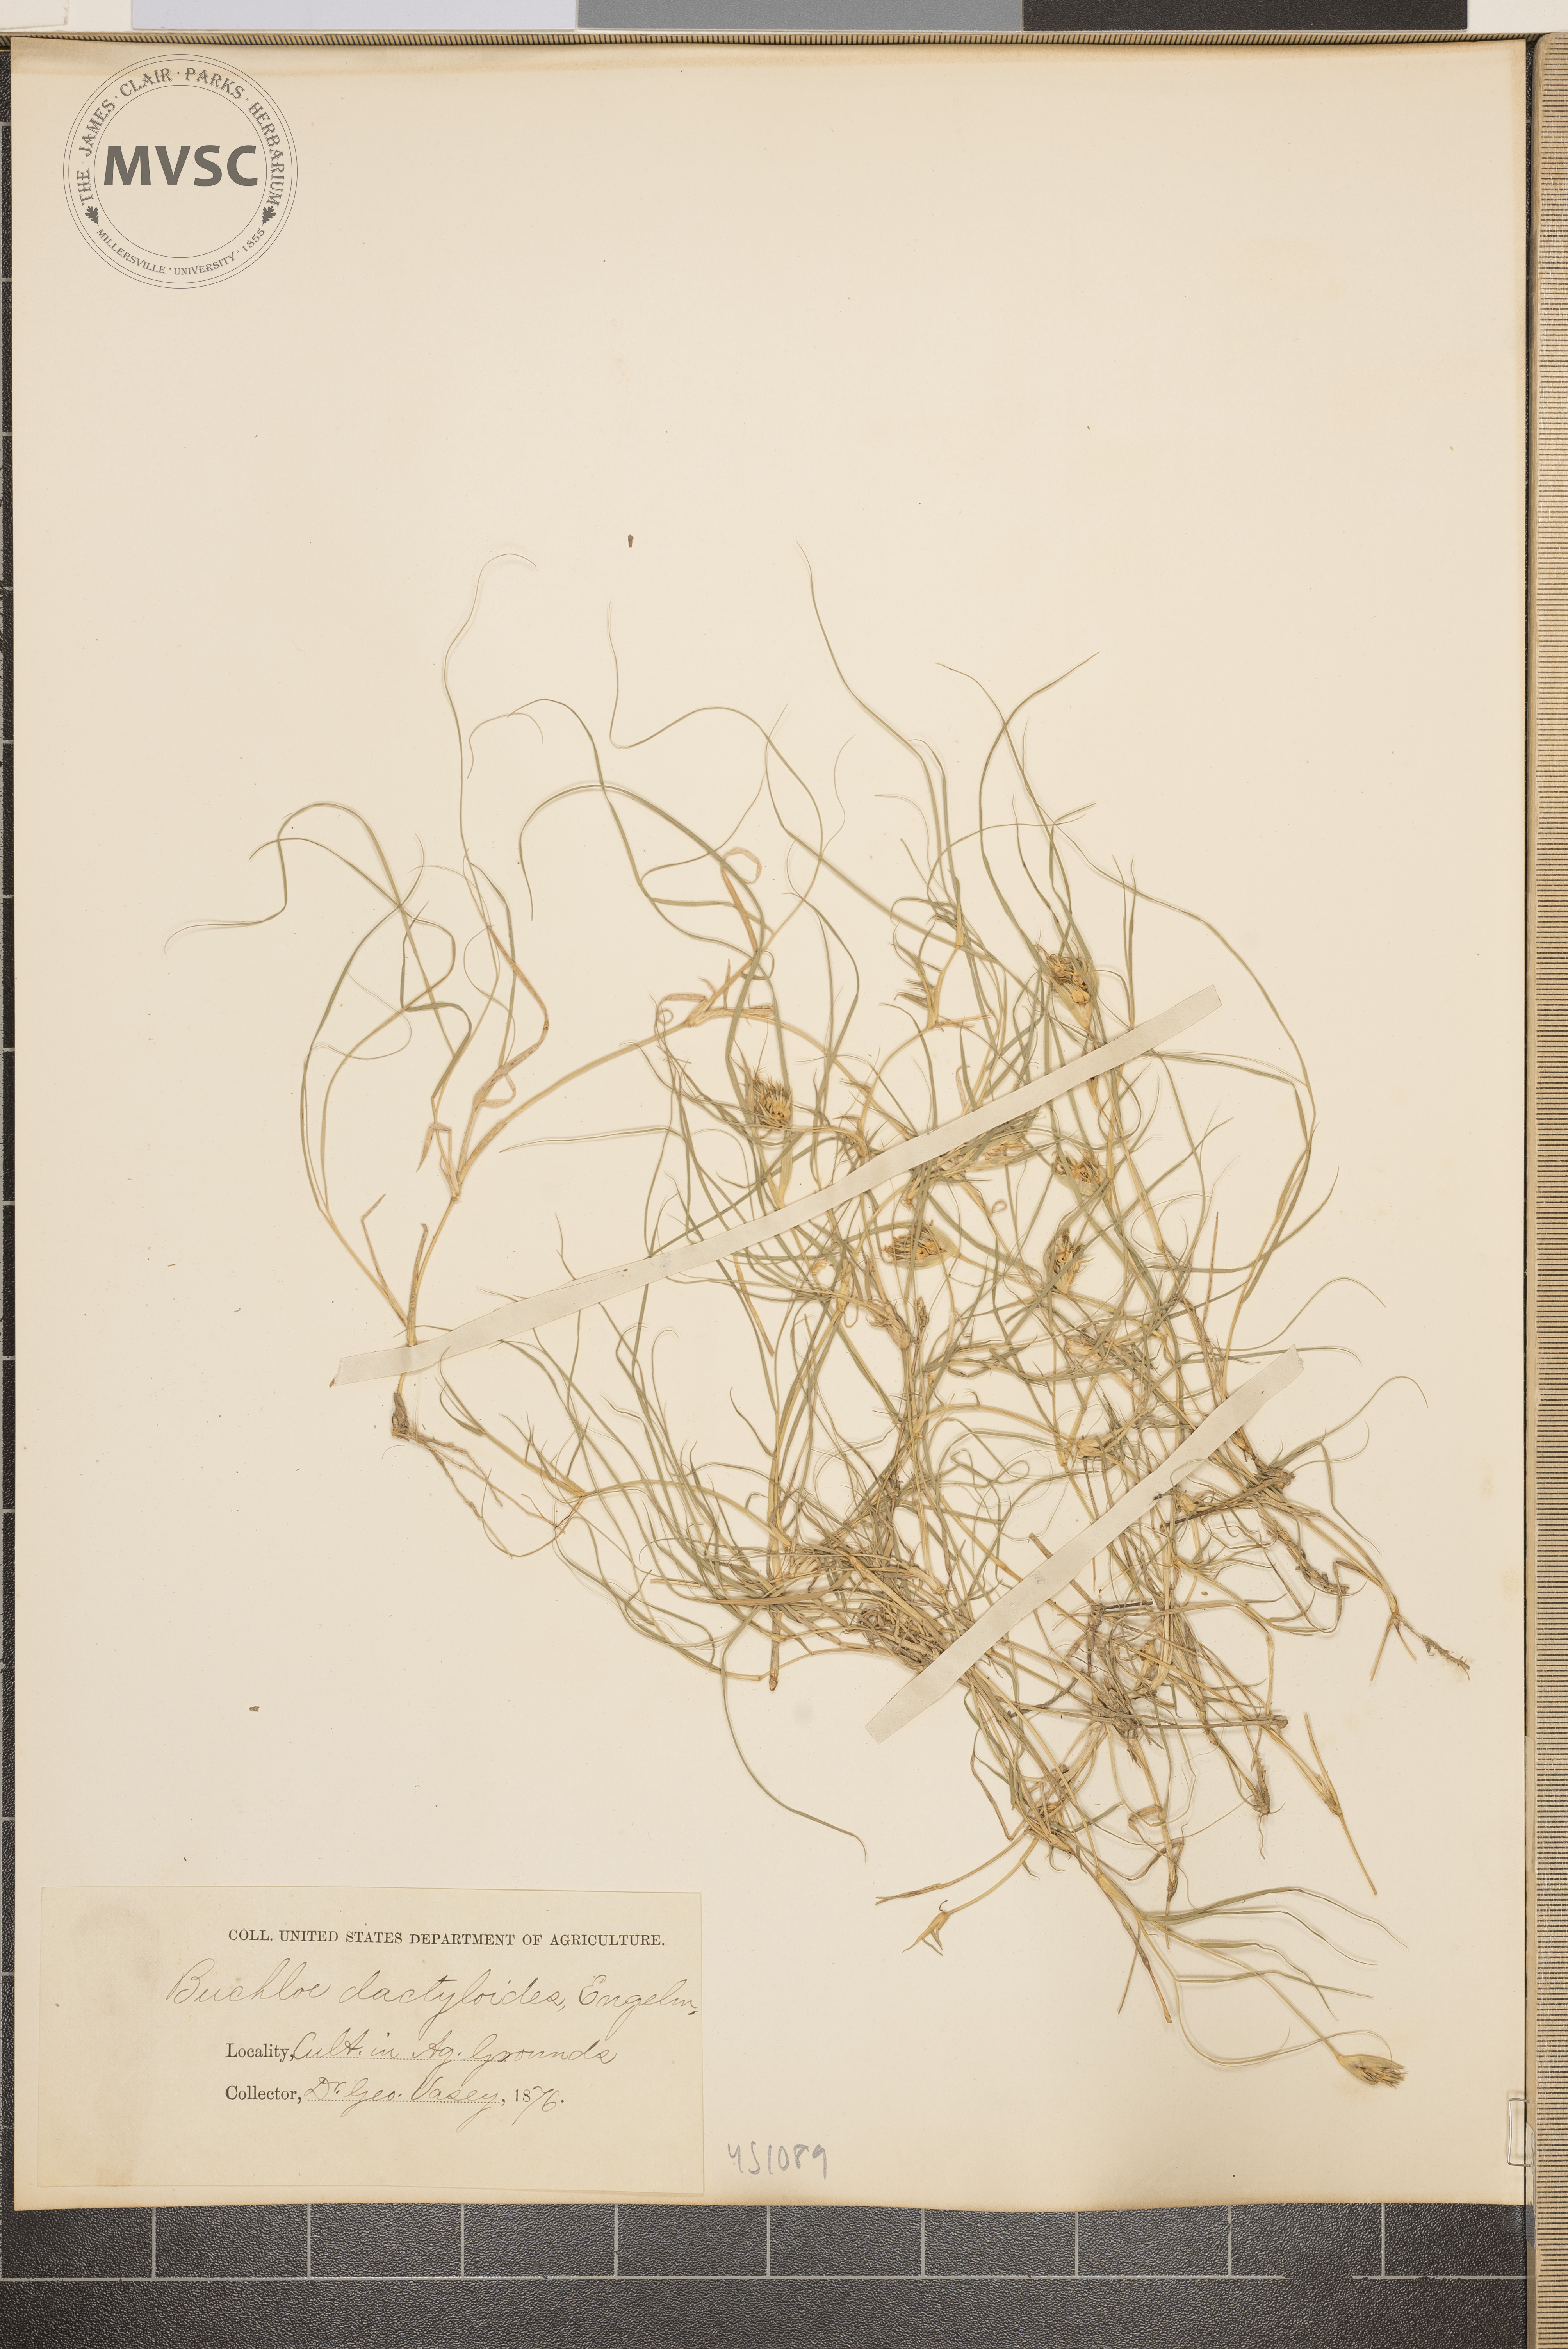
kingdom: Plantae
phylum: Tracheophyta
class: Liliopsida
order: Poales
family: Poaceae
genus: Bouteloua
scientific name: Bouteloua dactyloides
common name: Buffalo grass
